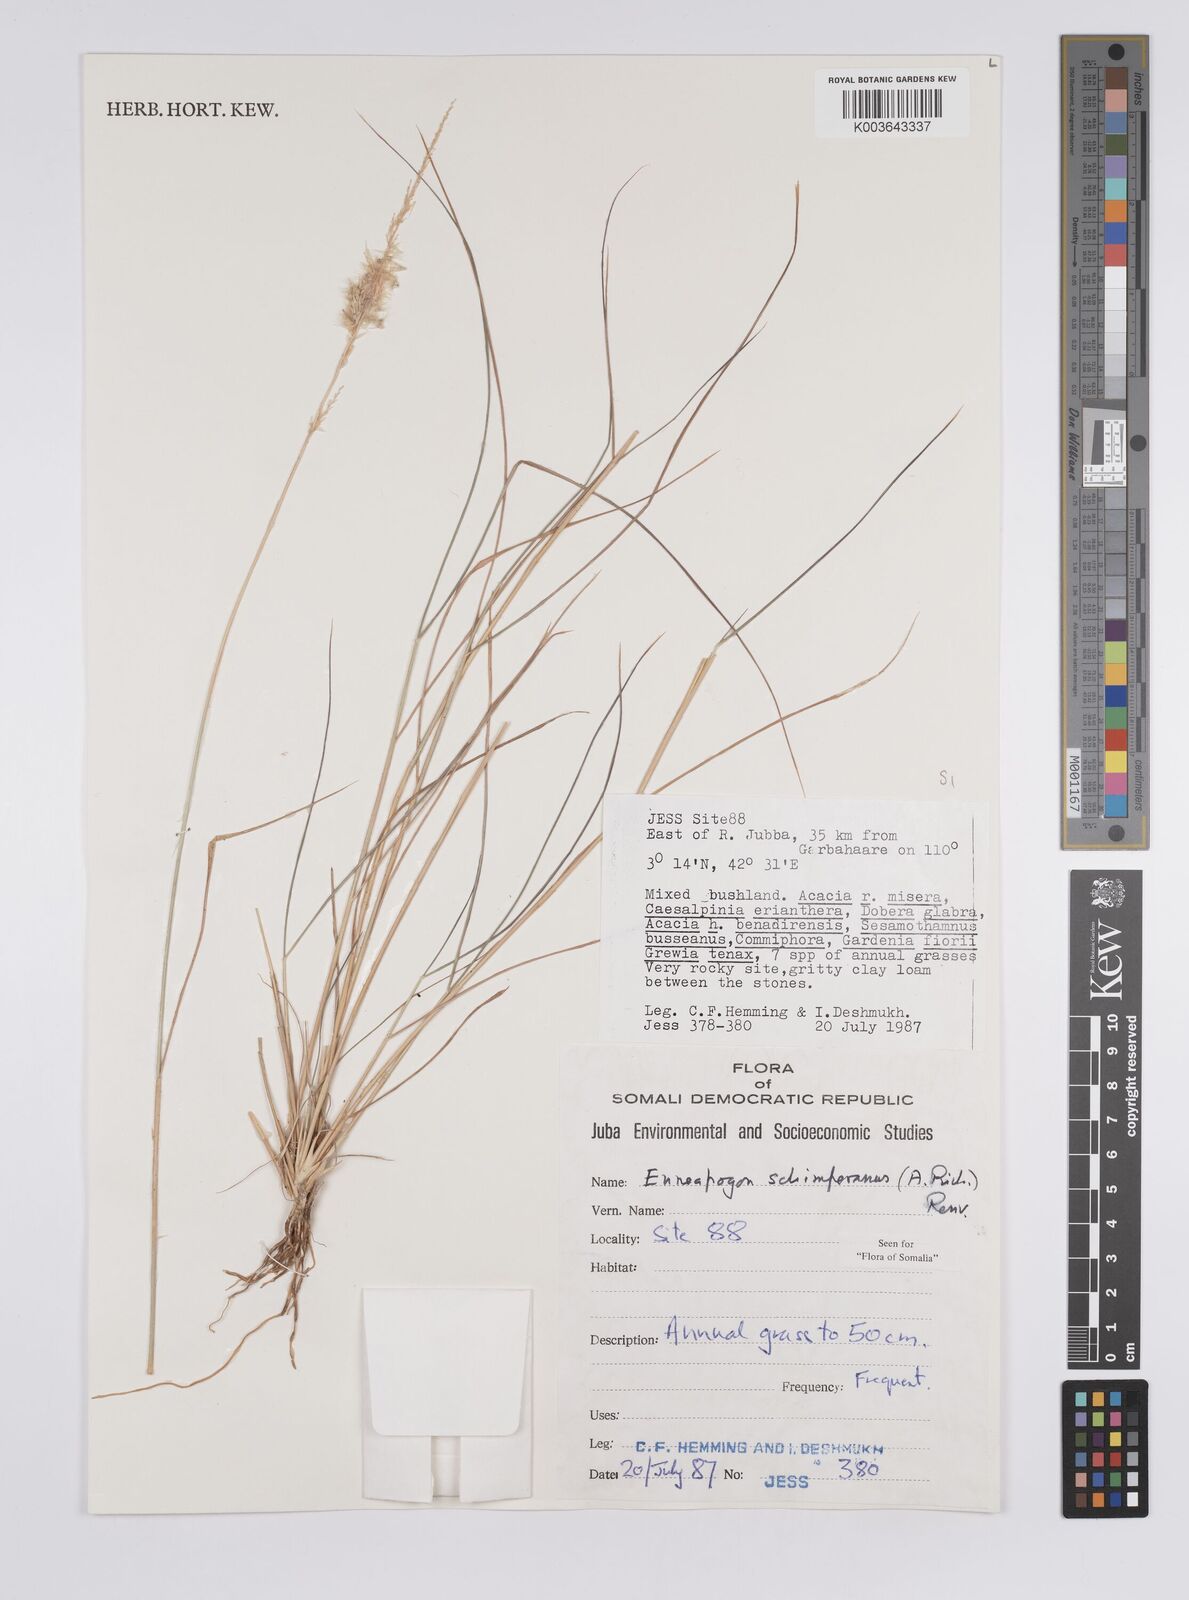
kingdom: Plantae
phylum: Tracheophyta
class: Liliopsida
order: Poales
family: Poaceae
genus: Enneapogon
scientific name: Enneapogon persicus
